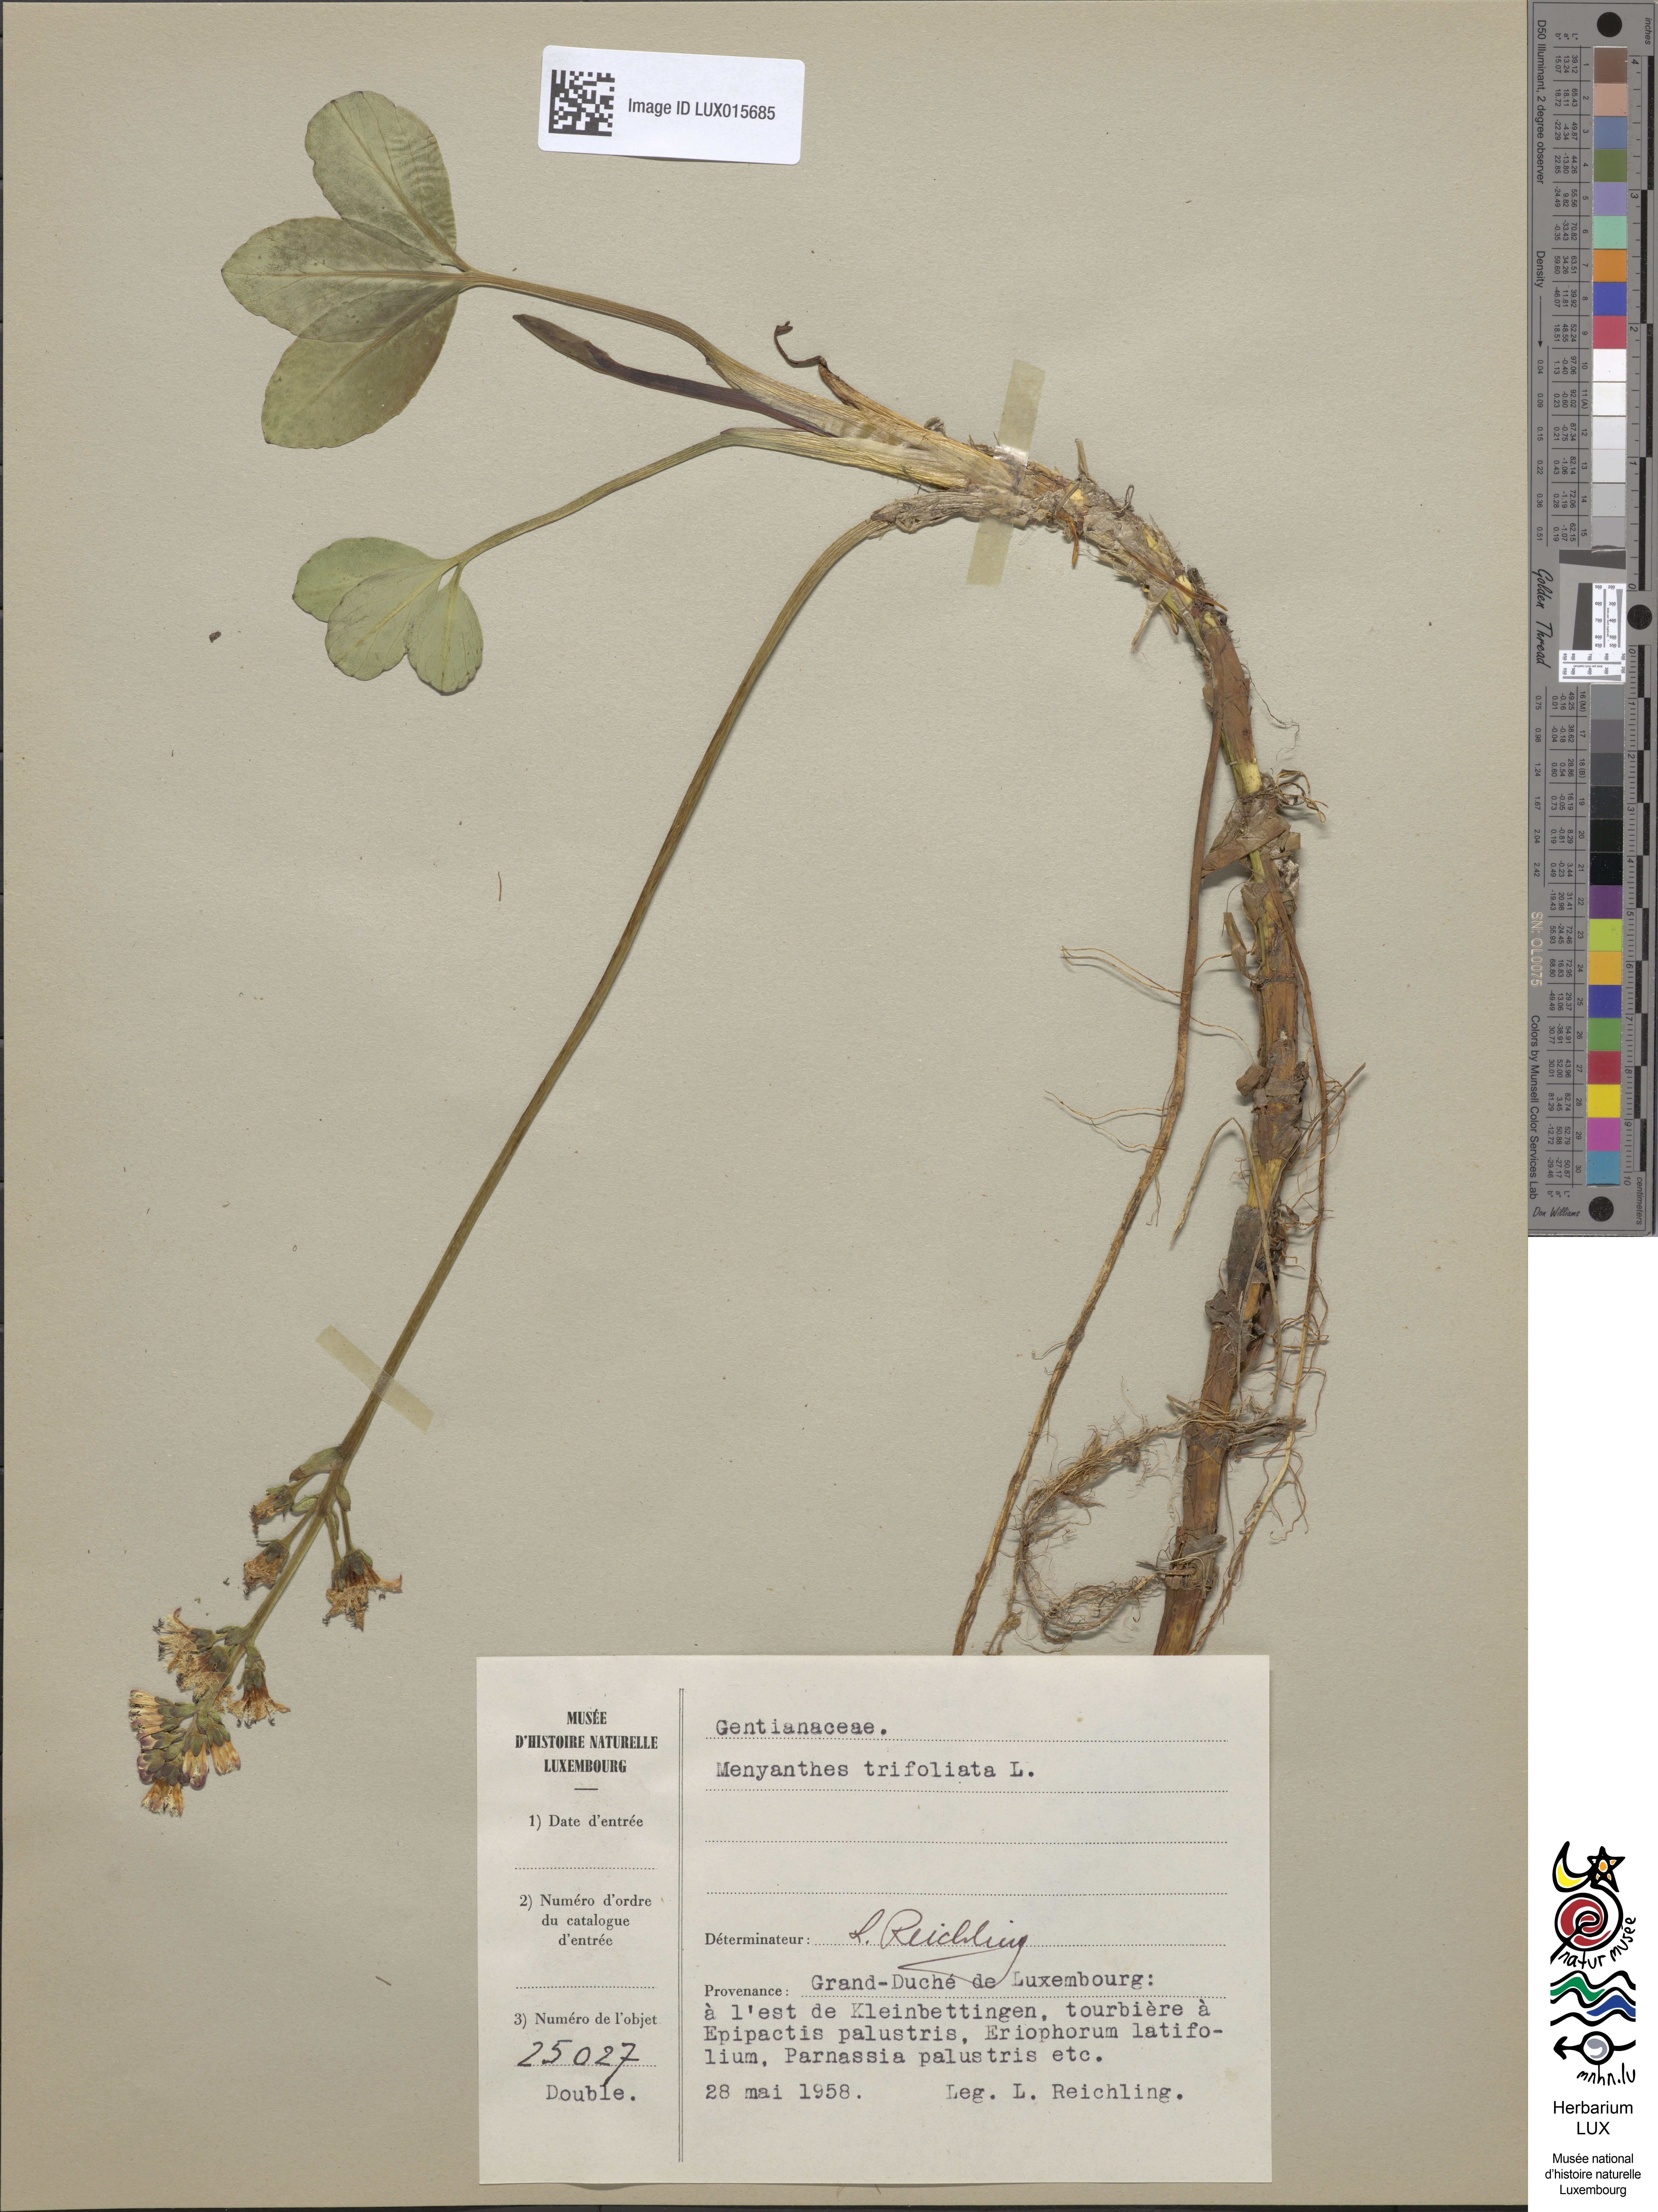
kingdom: Plantae
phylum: Tracheophyta
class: Magnoliopsida
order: Asterales
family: Menyanthaceae
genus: Menyanthes
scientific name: Menyanthes trifoliata
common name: Bogbean
